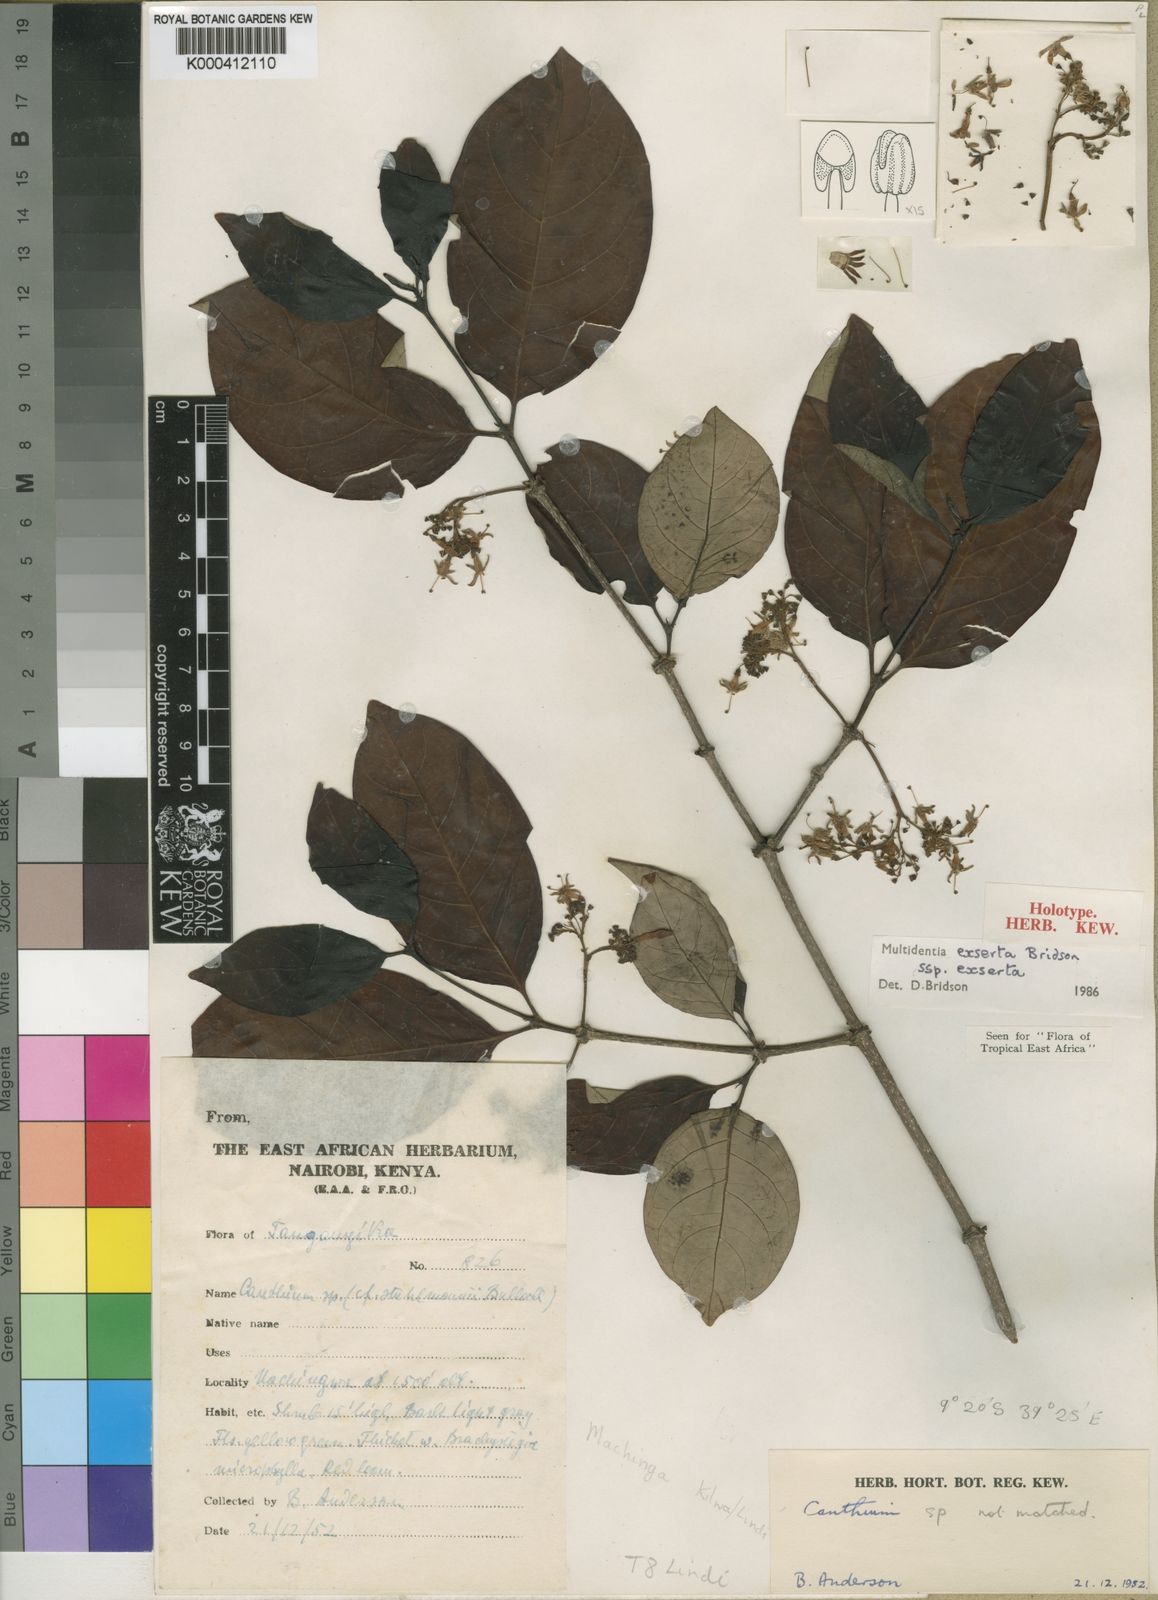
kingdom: Plantae
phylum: Tracheophyta
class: Magnoliopsida
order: Gentianales
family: Rubiaceae
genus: Multidentia
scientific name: Multidentia exserta
